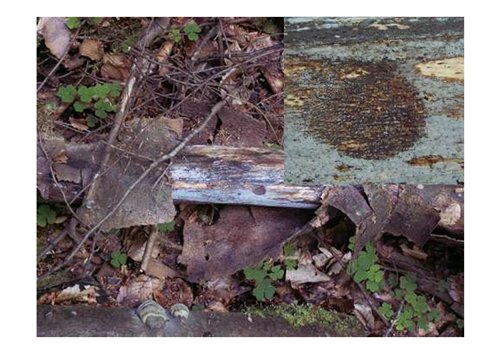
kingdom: Fungi
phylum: Basidiomycota
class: Tremellomycetes
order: Tremellales
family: Exidiaceae
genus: Exidiopsis
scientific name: Exidiopsis effusa
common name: smuk bævrehinde
